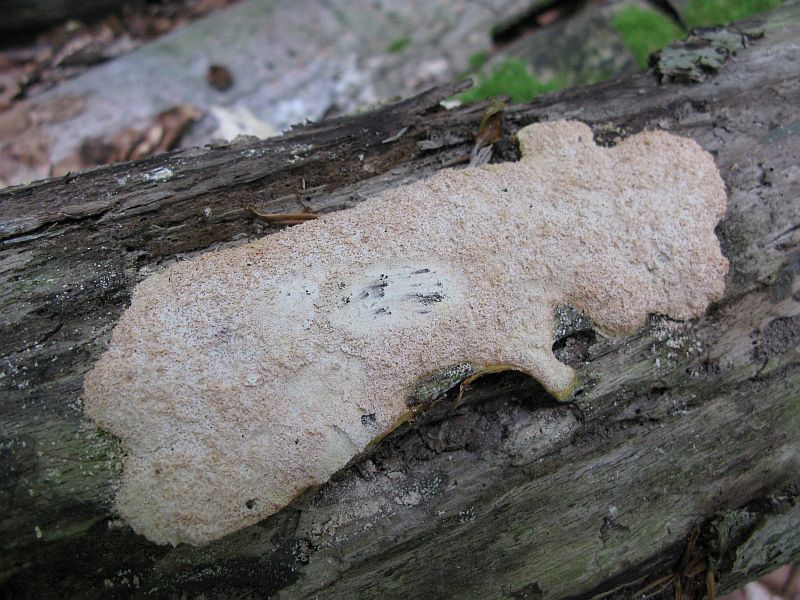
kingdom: Protozoa
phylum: Mycetozoa
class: Myxomycetes
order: Physarales
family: Physaraceae
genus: Fuligo
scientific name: Fuligo septica
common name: Dog vomit slime mold
